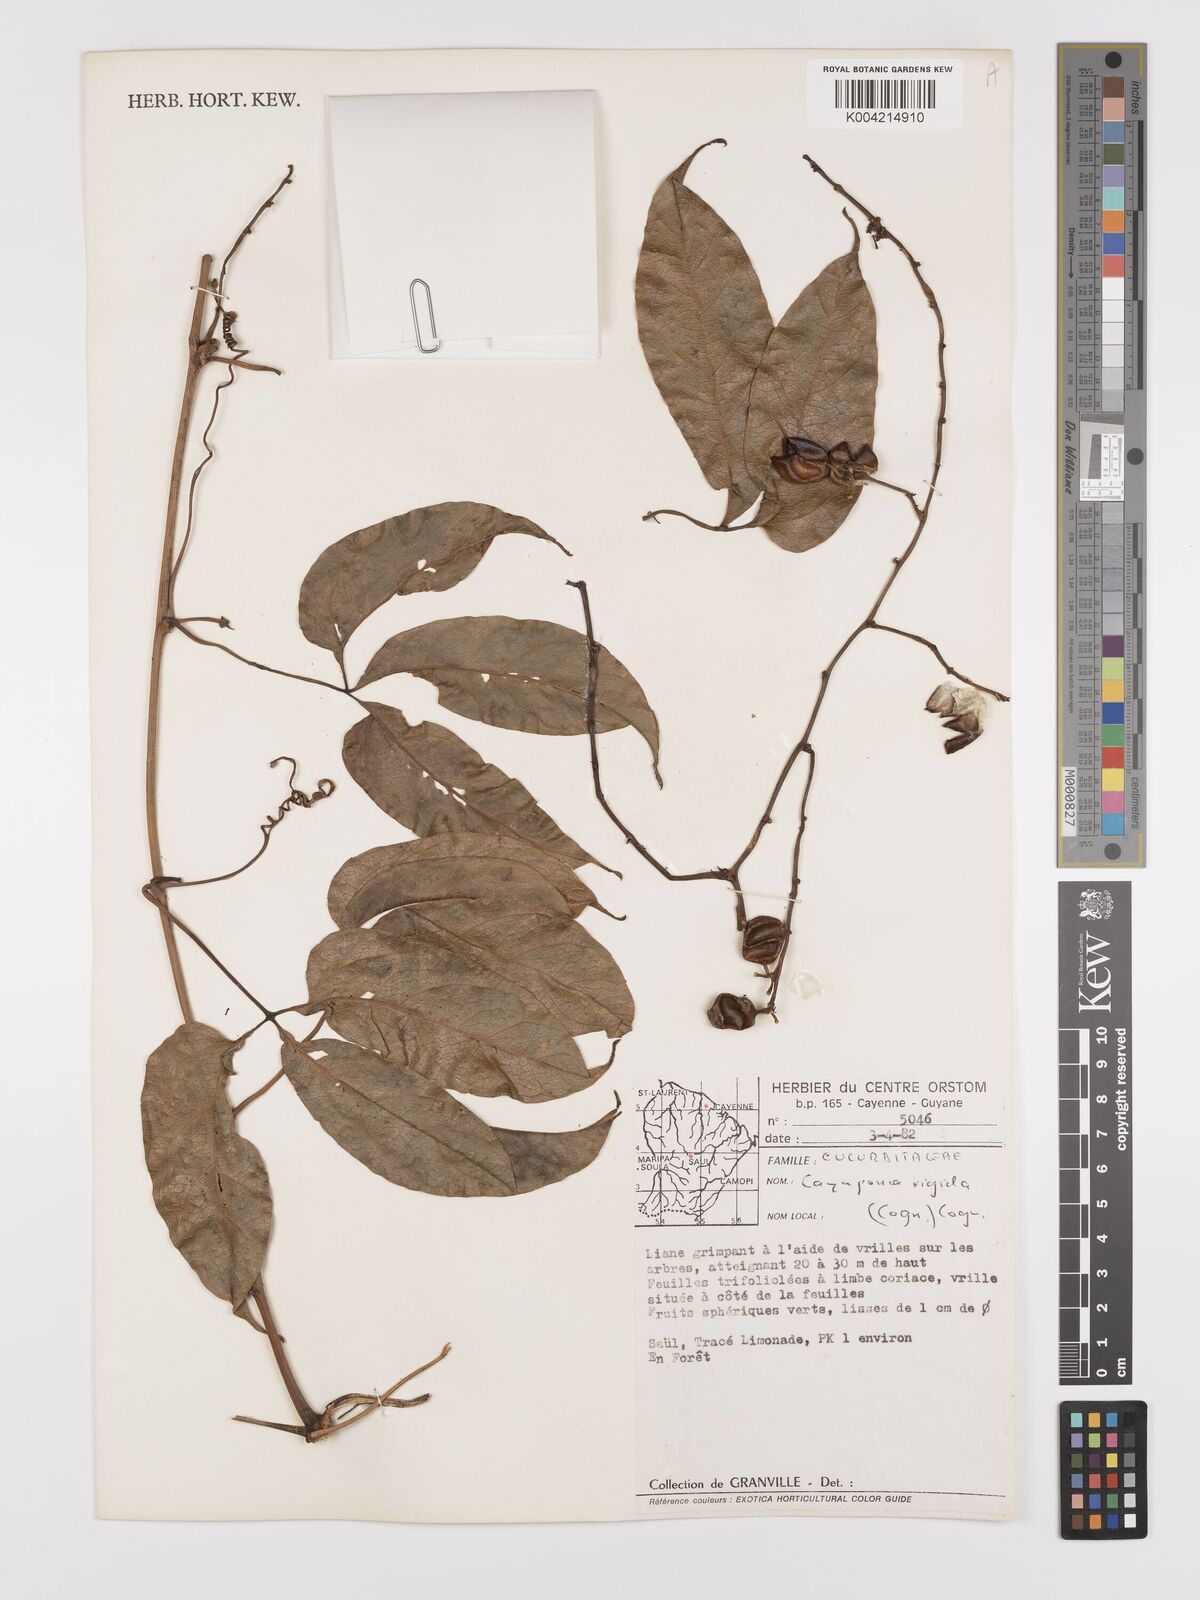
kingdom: Plantae
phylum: Tracheophyta
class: Magnoliopsida
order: Cucurbitales
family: Cucurbitaceae
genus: Cayaponia
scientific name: Cayaponia rigida
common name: Boskomkommer
